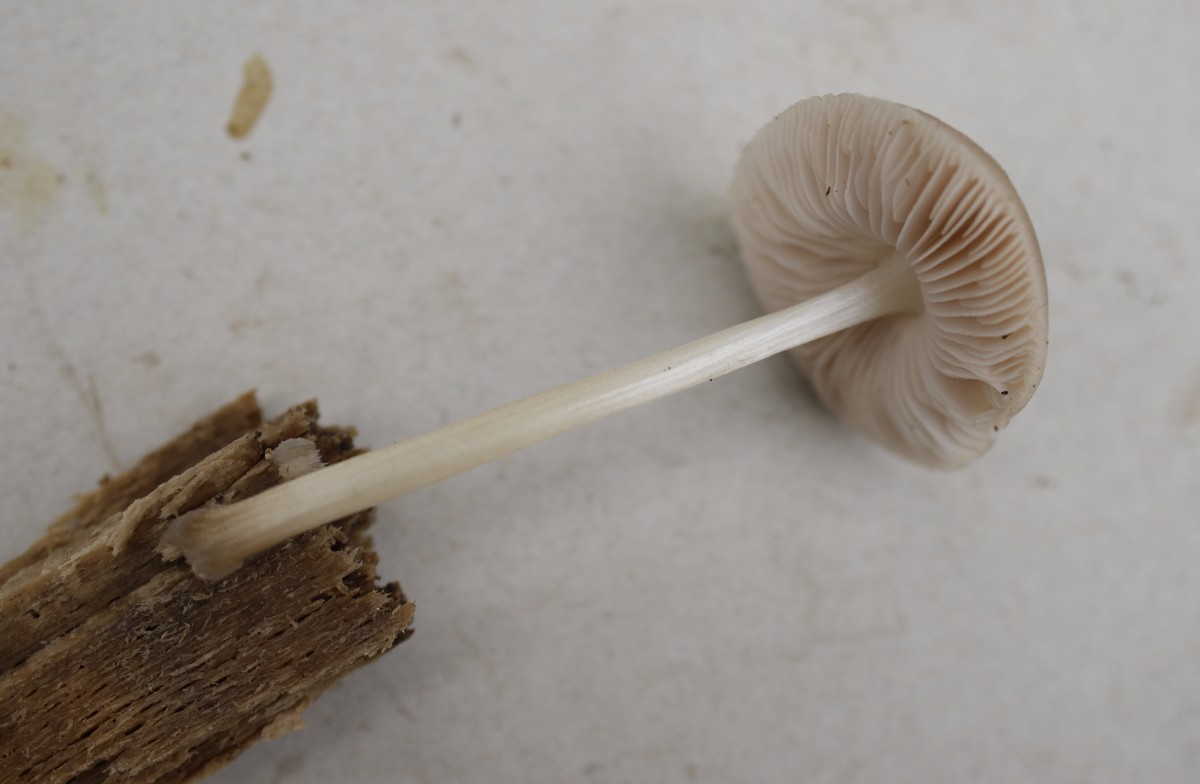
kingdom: Fungi
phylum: Basidiomycota
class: Agaricomycetes
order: Agaricales
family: Pluteaceae
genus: Pluteus
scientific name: Pluteus semibulbosus
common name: knoldet skærmhat
